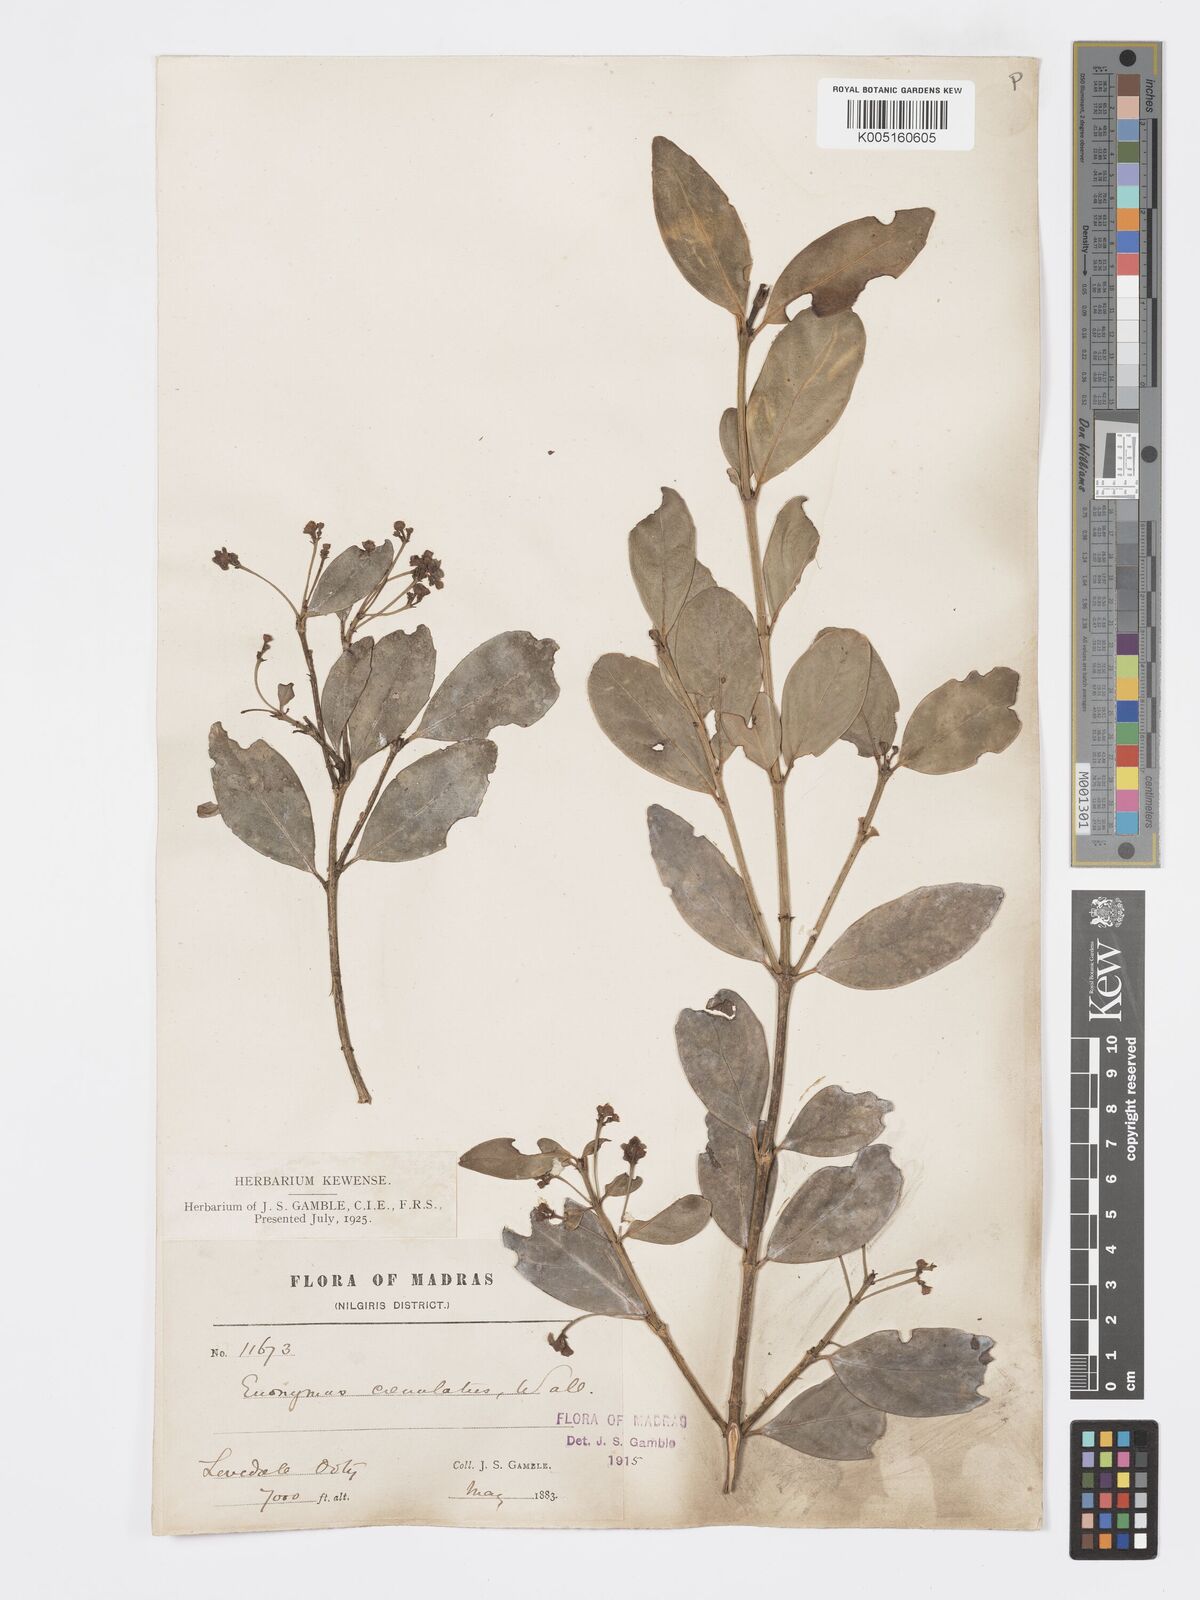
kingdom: Plantae
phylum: Tracheophyta
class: Magnoliopsida
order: Celastrales
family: Celastraceae
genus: Euonymus
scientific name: Euonymus crenulatus
